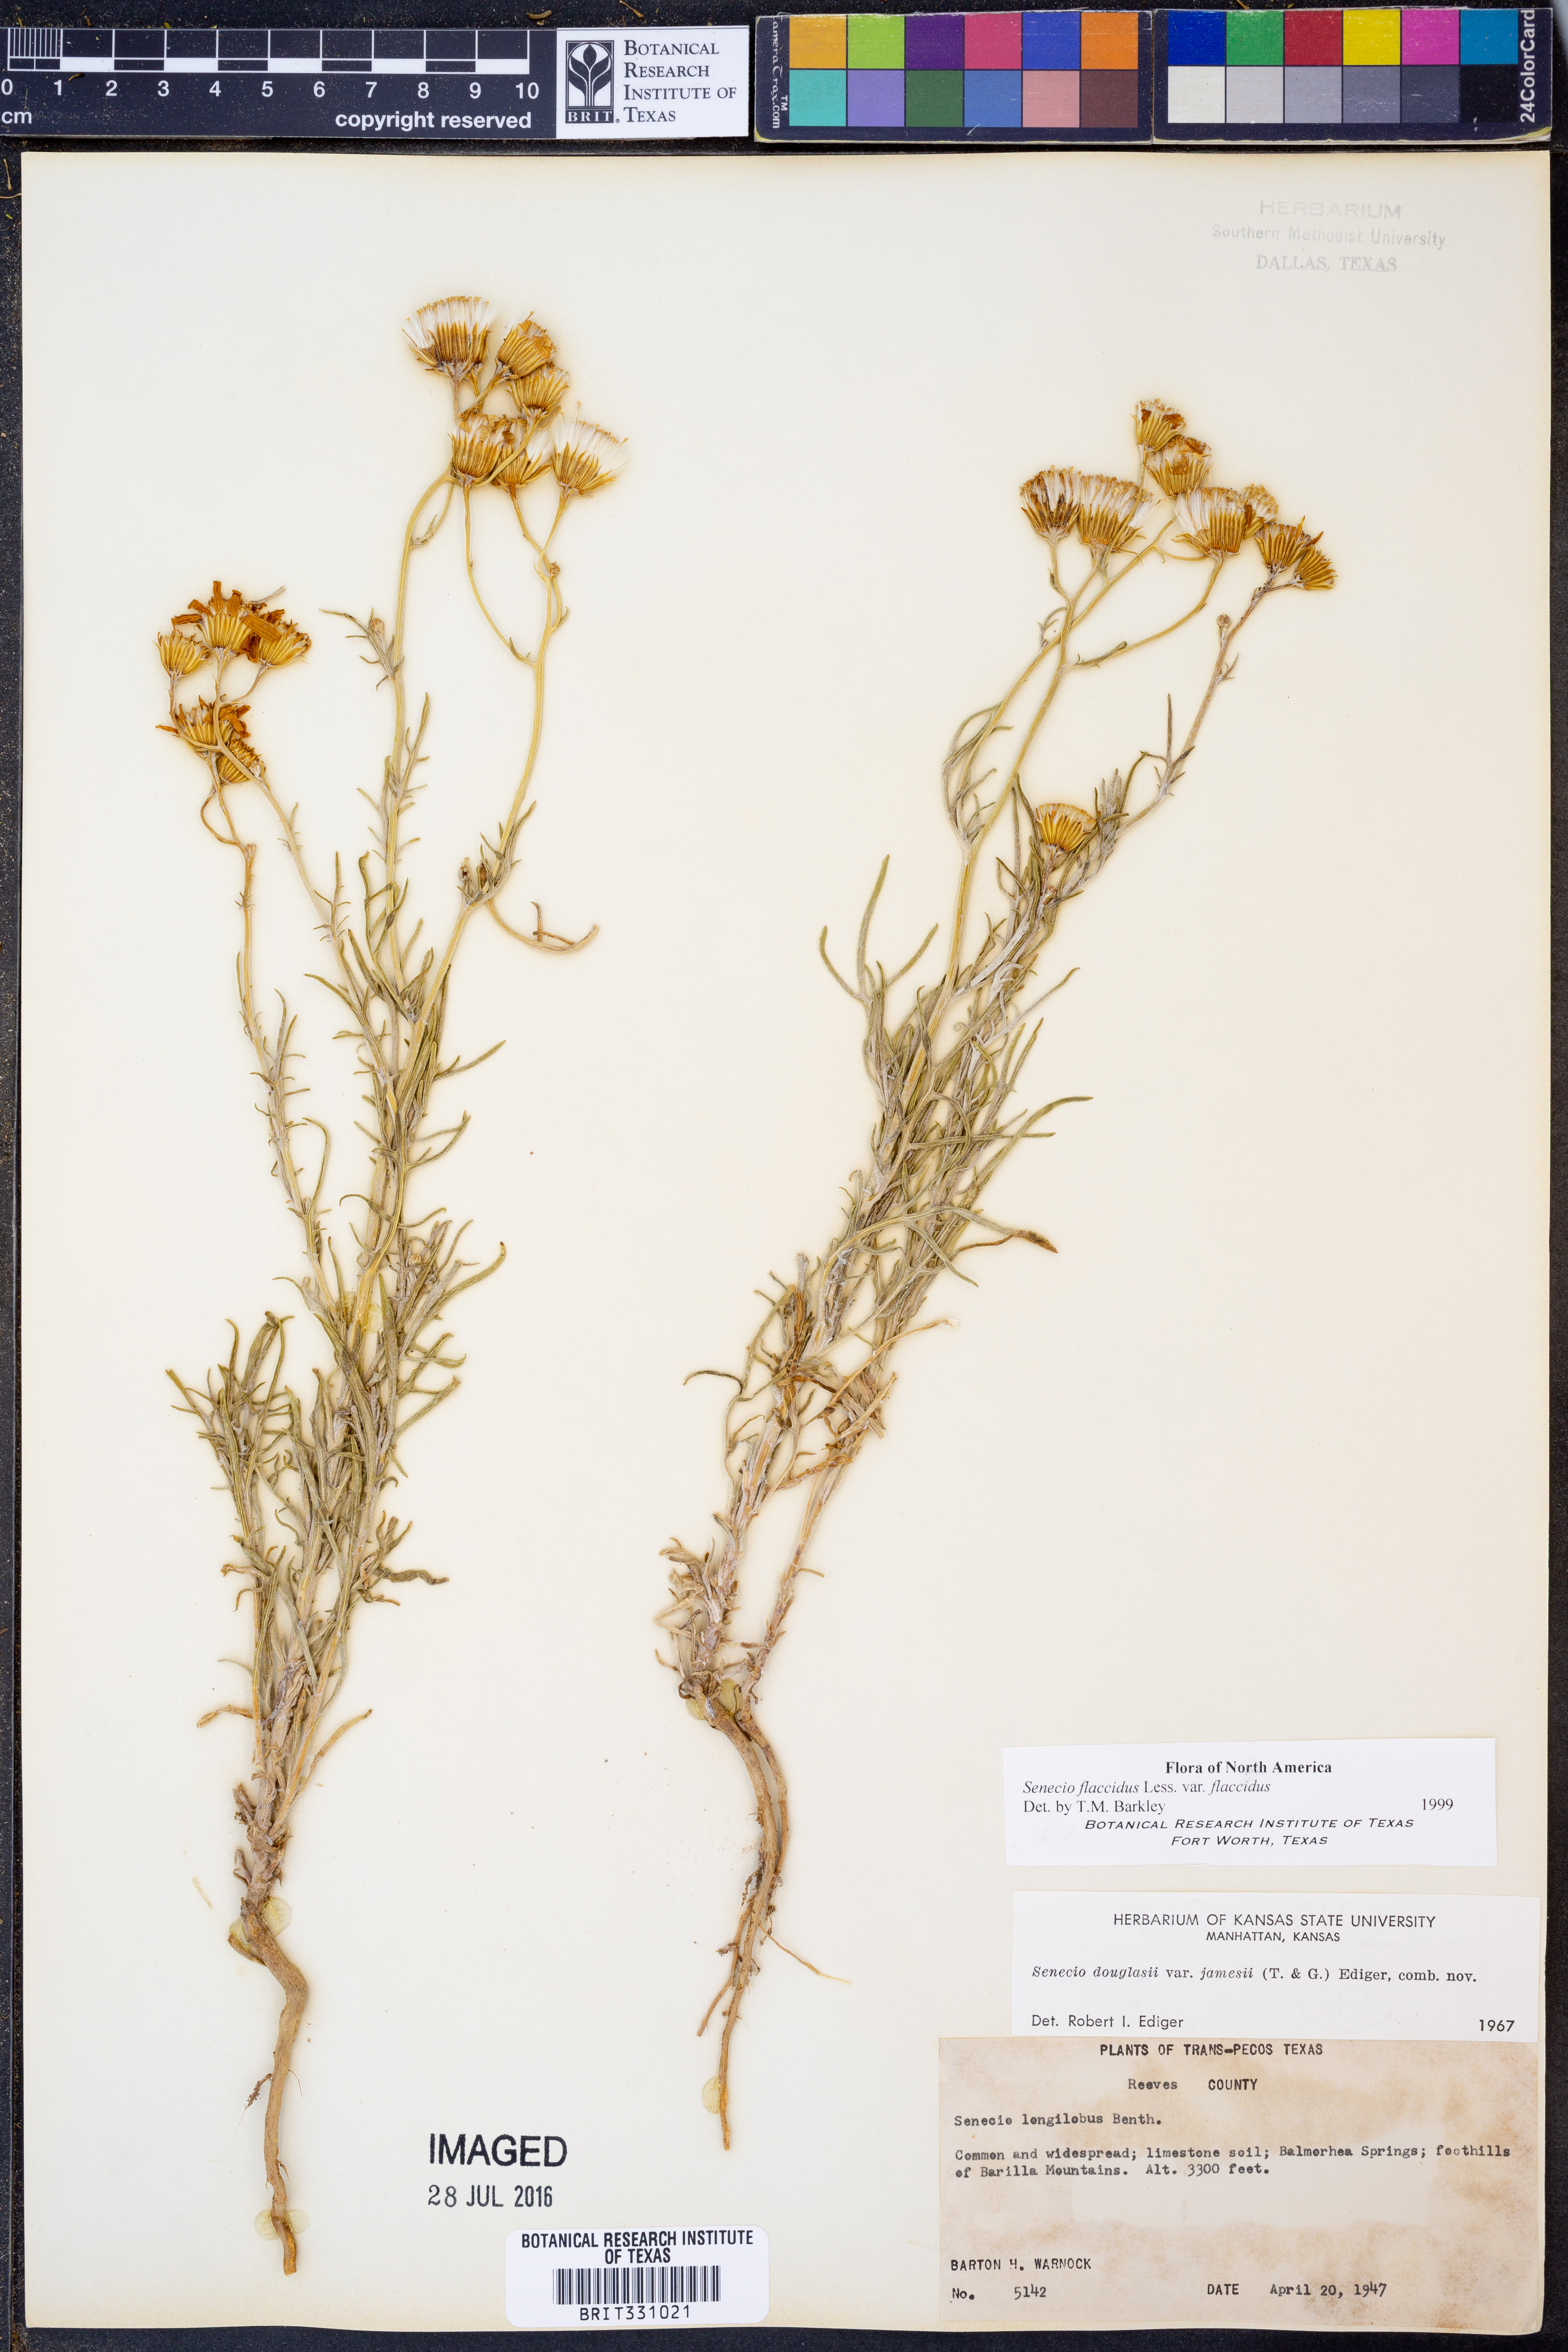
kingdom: Plantae
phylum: Tracheophyta
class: Magnoliopsida
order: Asterales
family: Asteraceae
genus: Senecio
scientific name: Senecio flaccidus
